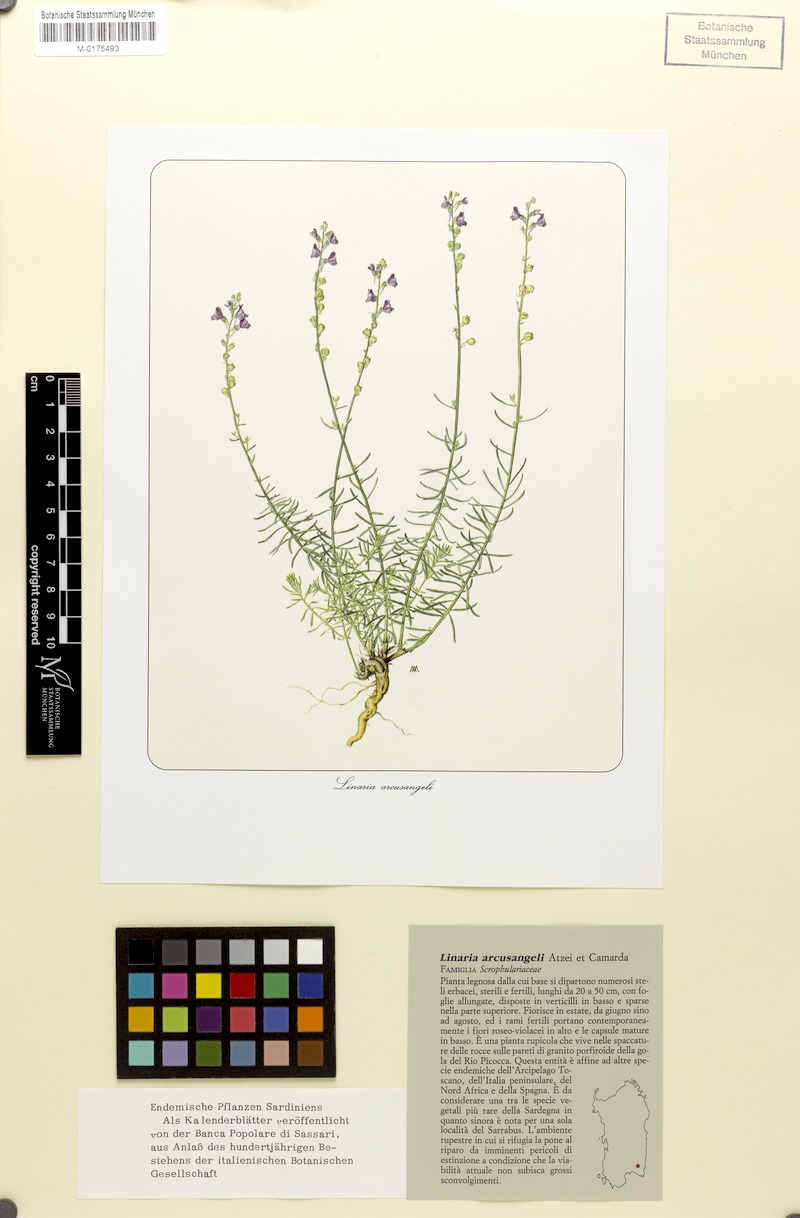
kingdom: Plantae
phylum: Tracheophyta
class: Magnoliopsida
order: Lamiales
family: Plantaginaceae
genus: Linaria
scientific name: Linaria arcusangeli
